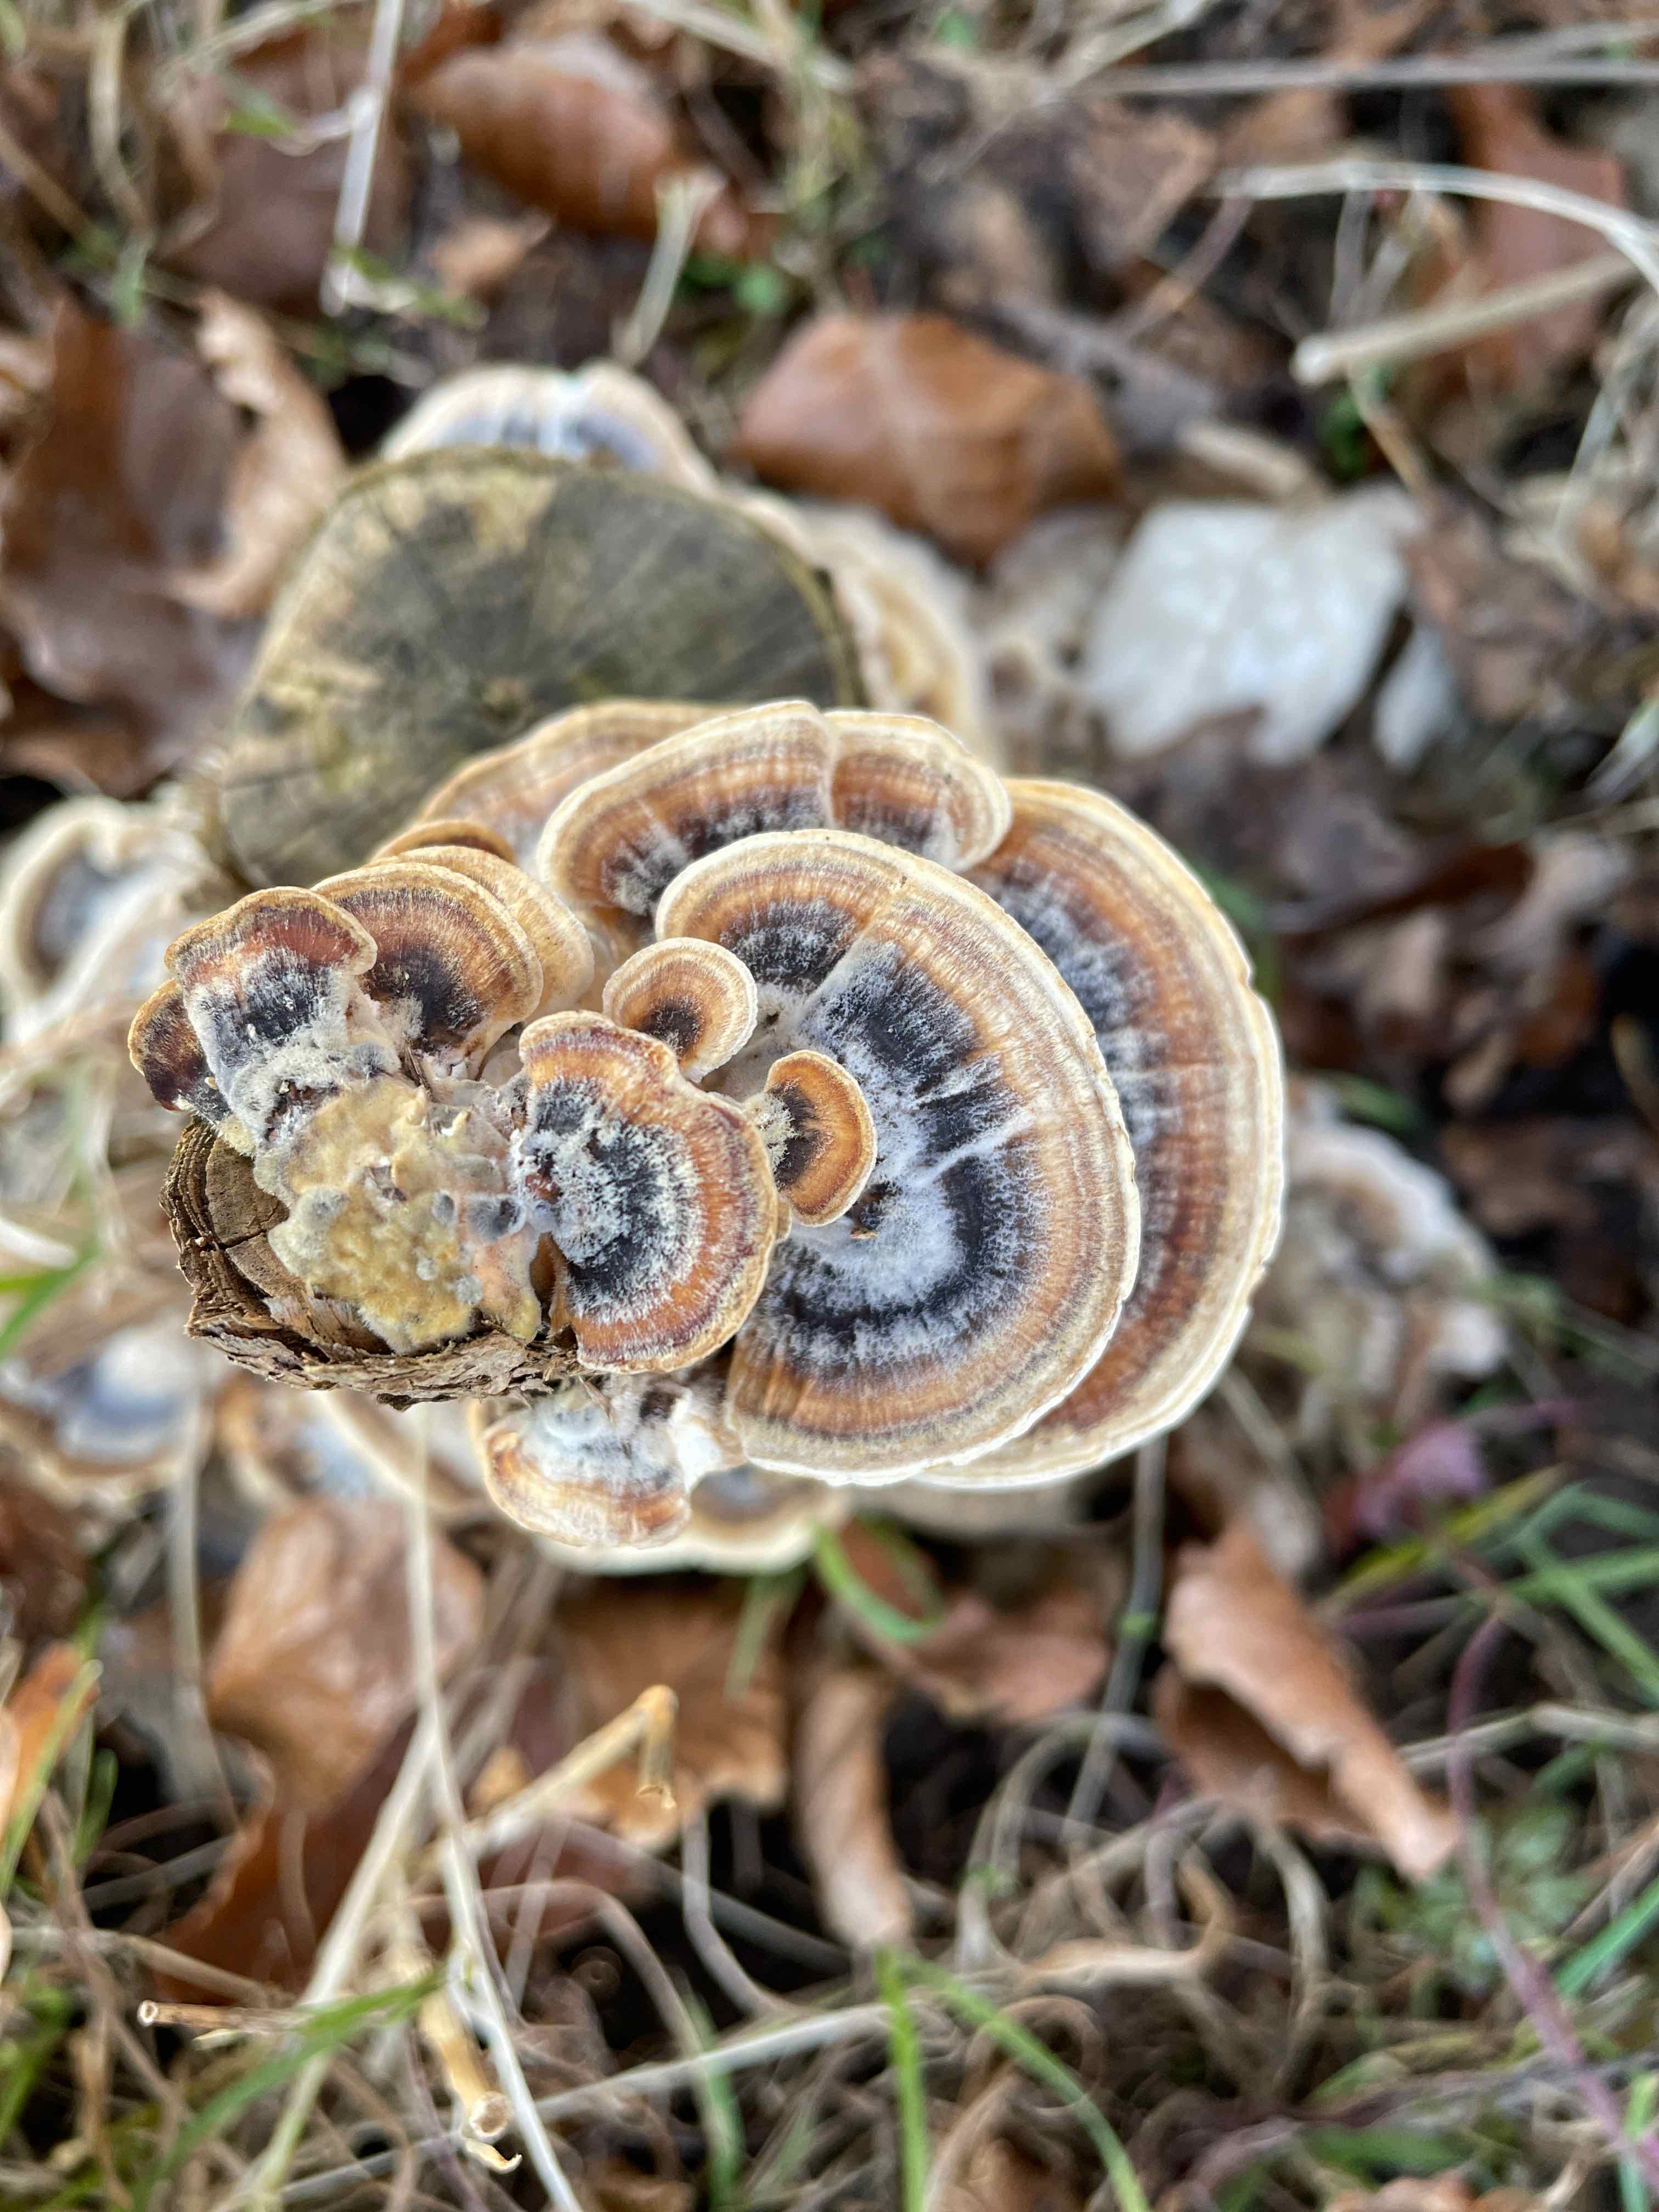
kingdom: Fungi
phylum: Basidiomycota
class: Agaricomycetes
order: Polyporales
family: Polyporaceae
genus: Trametes
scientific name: Trametes versicolor
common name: broget læderporesvamp
